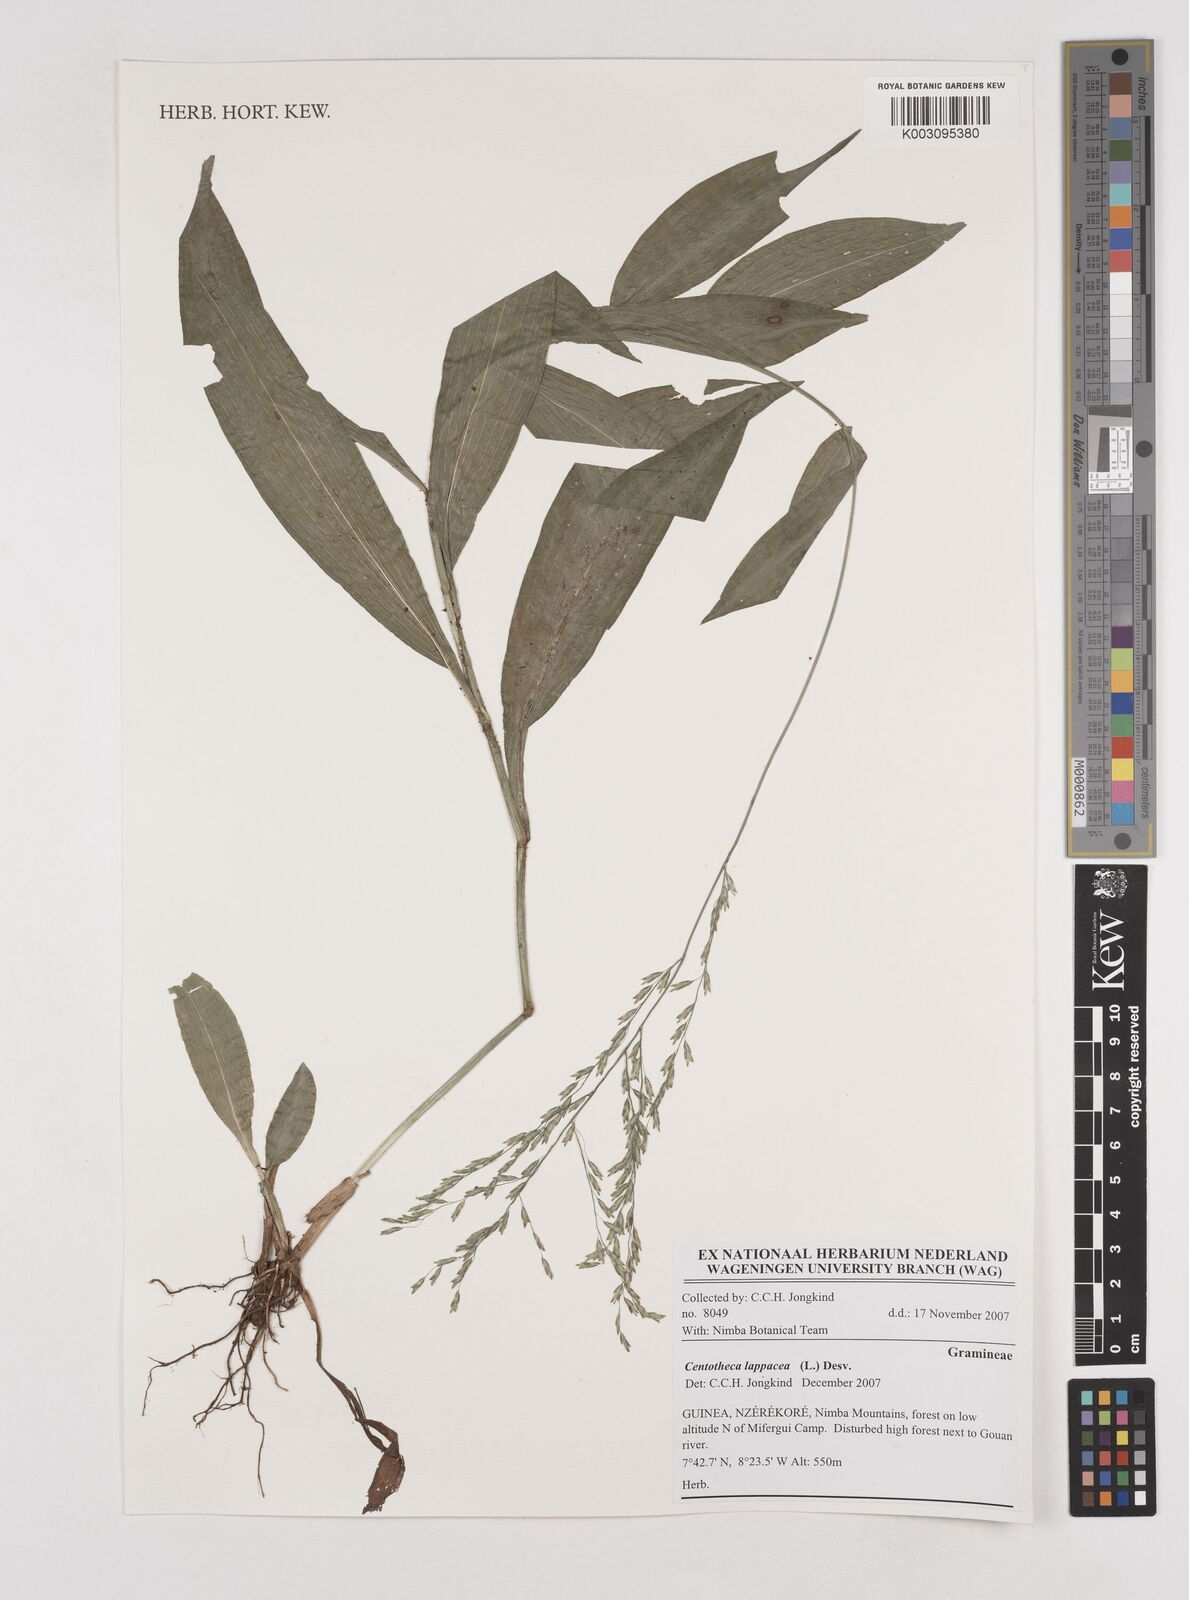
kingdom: Plantae
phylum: Tracheophyta
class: Liliopsida
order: Poales
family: Poaceae
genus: Centotheca
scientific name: Centotheca lappacea
